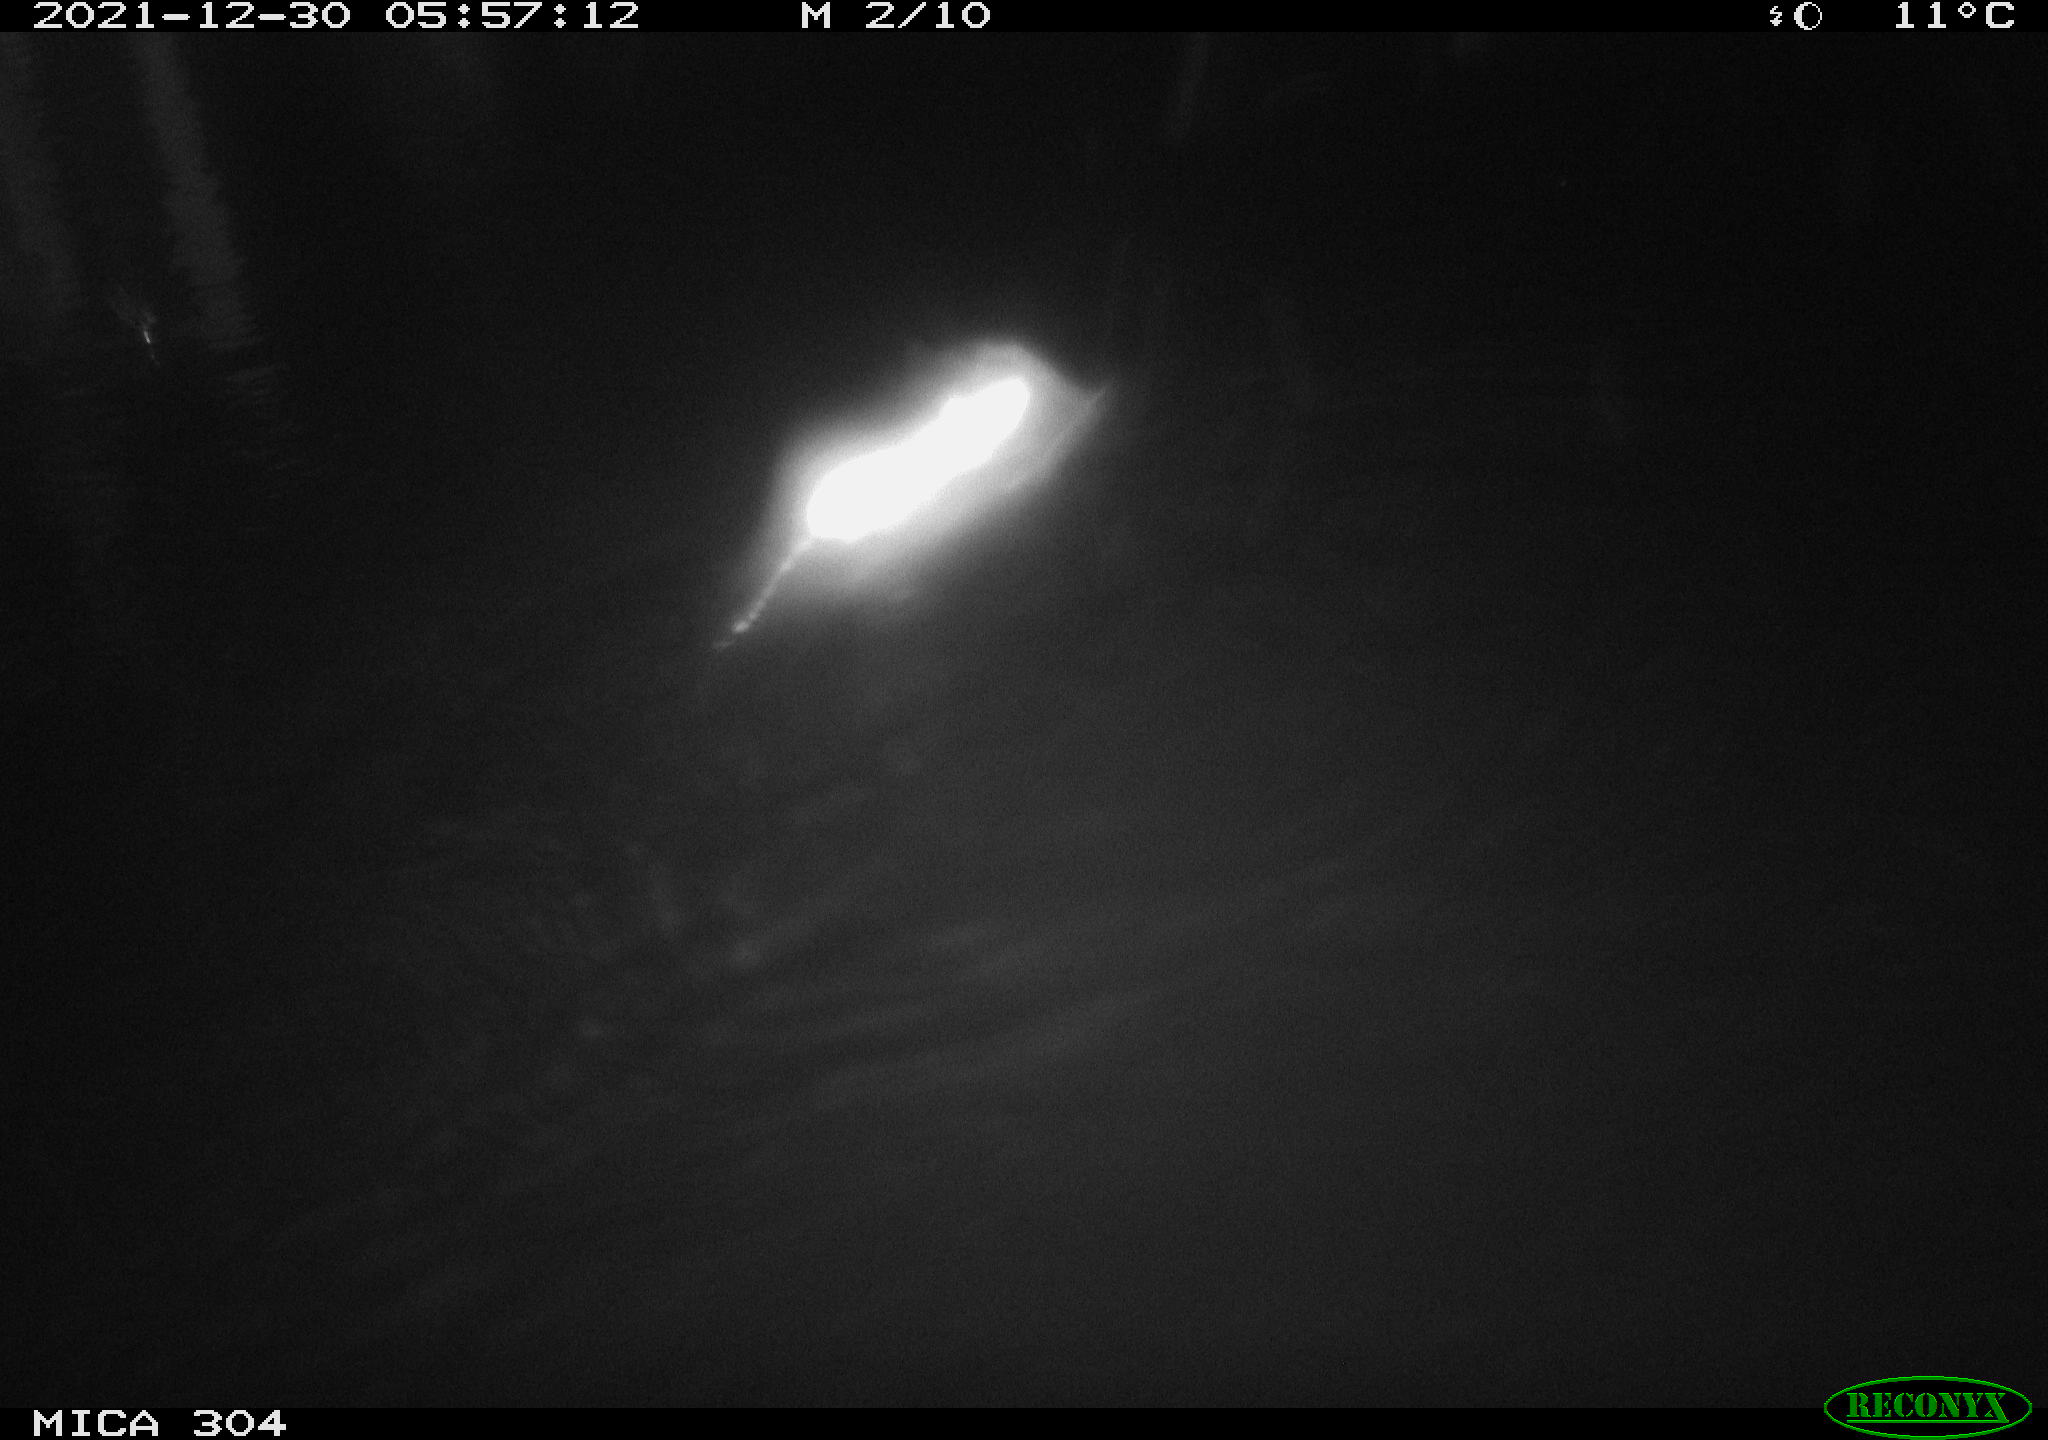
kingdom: Animalia
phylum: Chordata
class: Mammalia
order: Rodentia
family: Muridae
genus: Rattus
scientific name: Rattus norvegicus
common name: Brown rat
